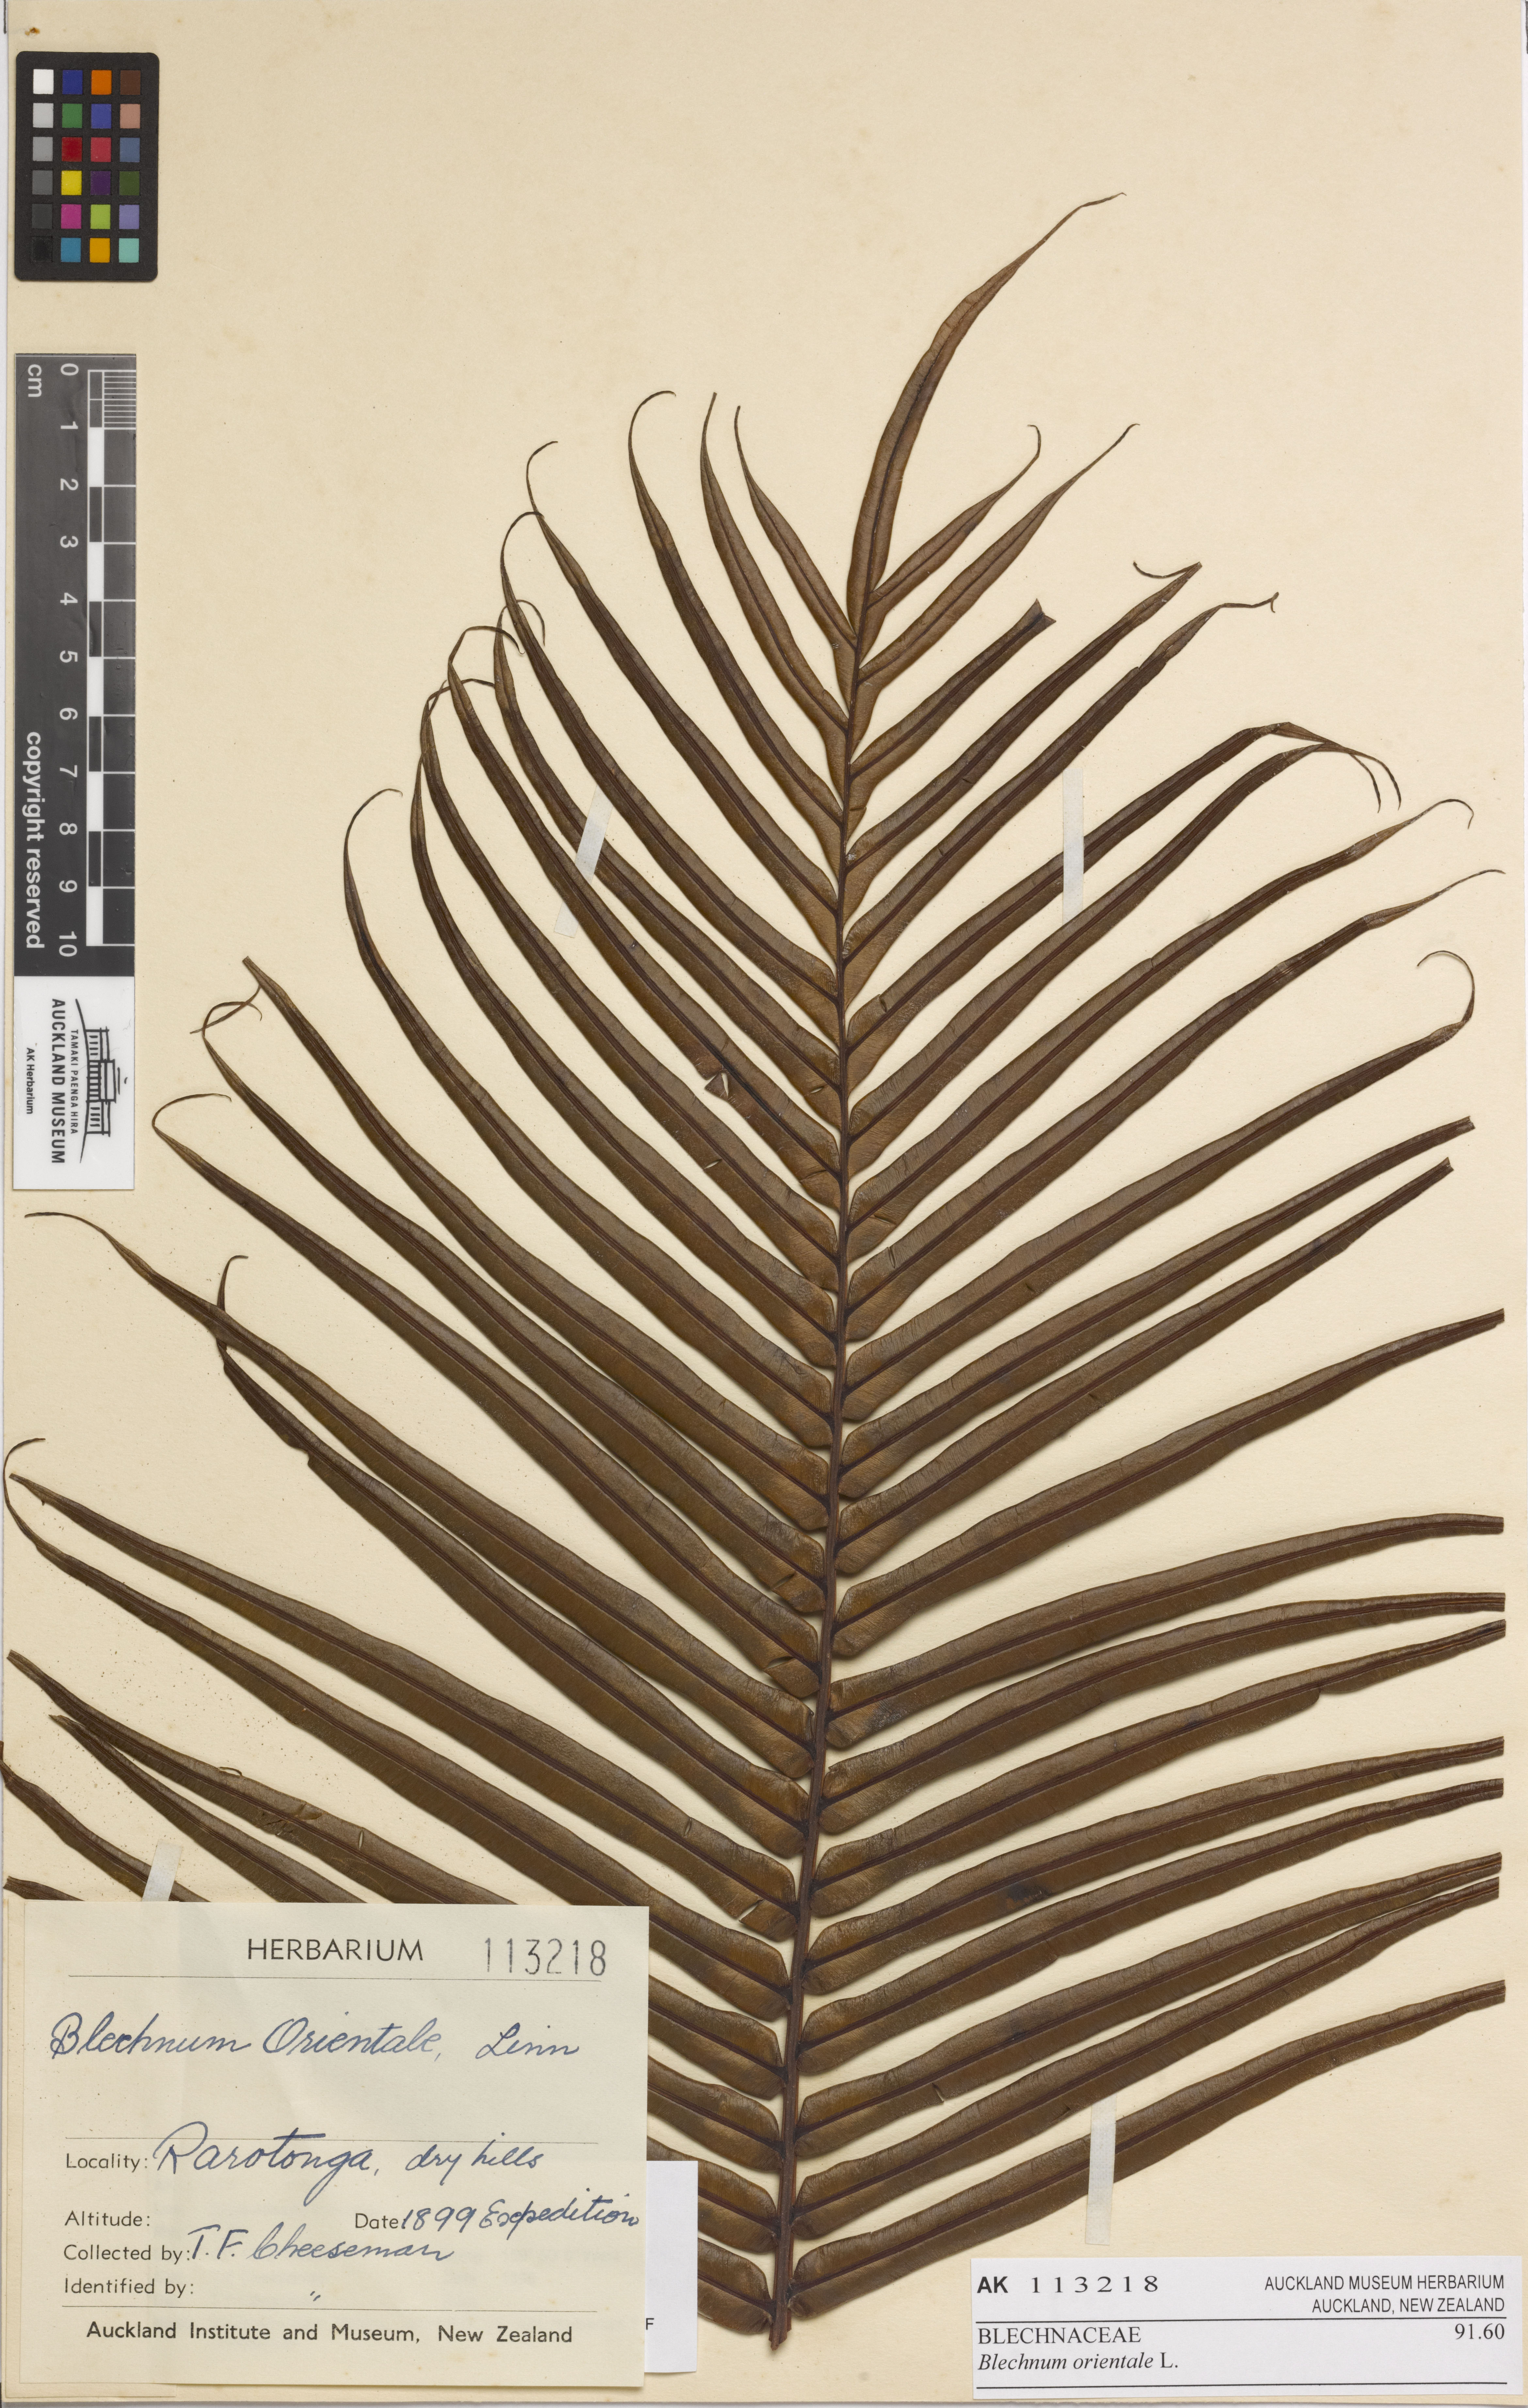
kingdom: Plantae
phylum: Tracheophyta
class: Polypodiopsida
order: Polypodiales
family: Blechnaceae
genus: Blechnopsis
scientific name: Blechnopsis orientalis
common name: Oriental blechnum
